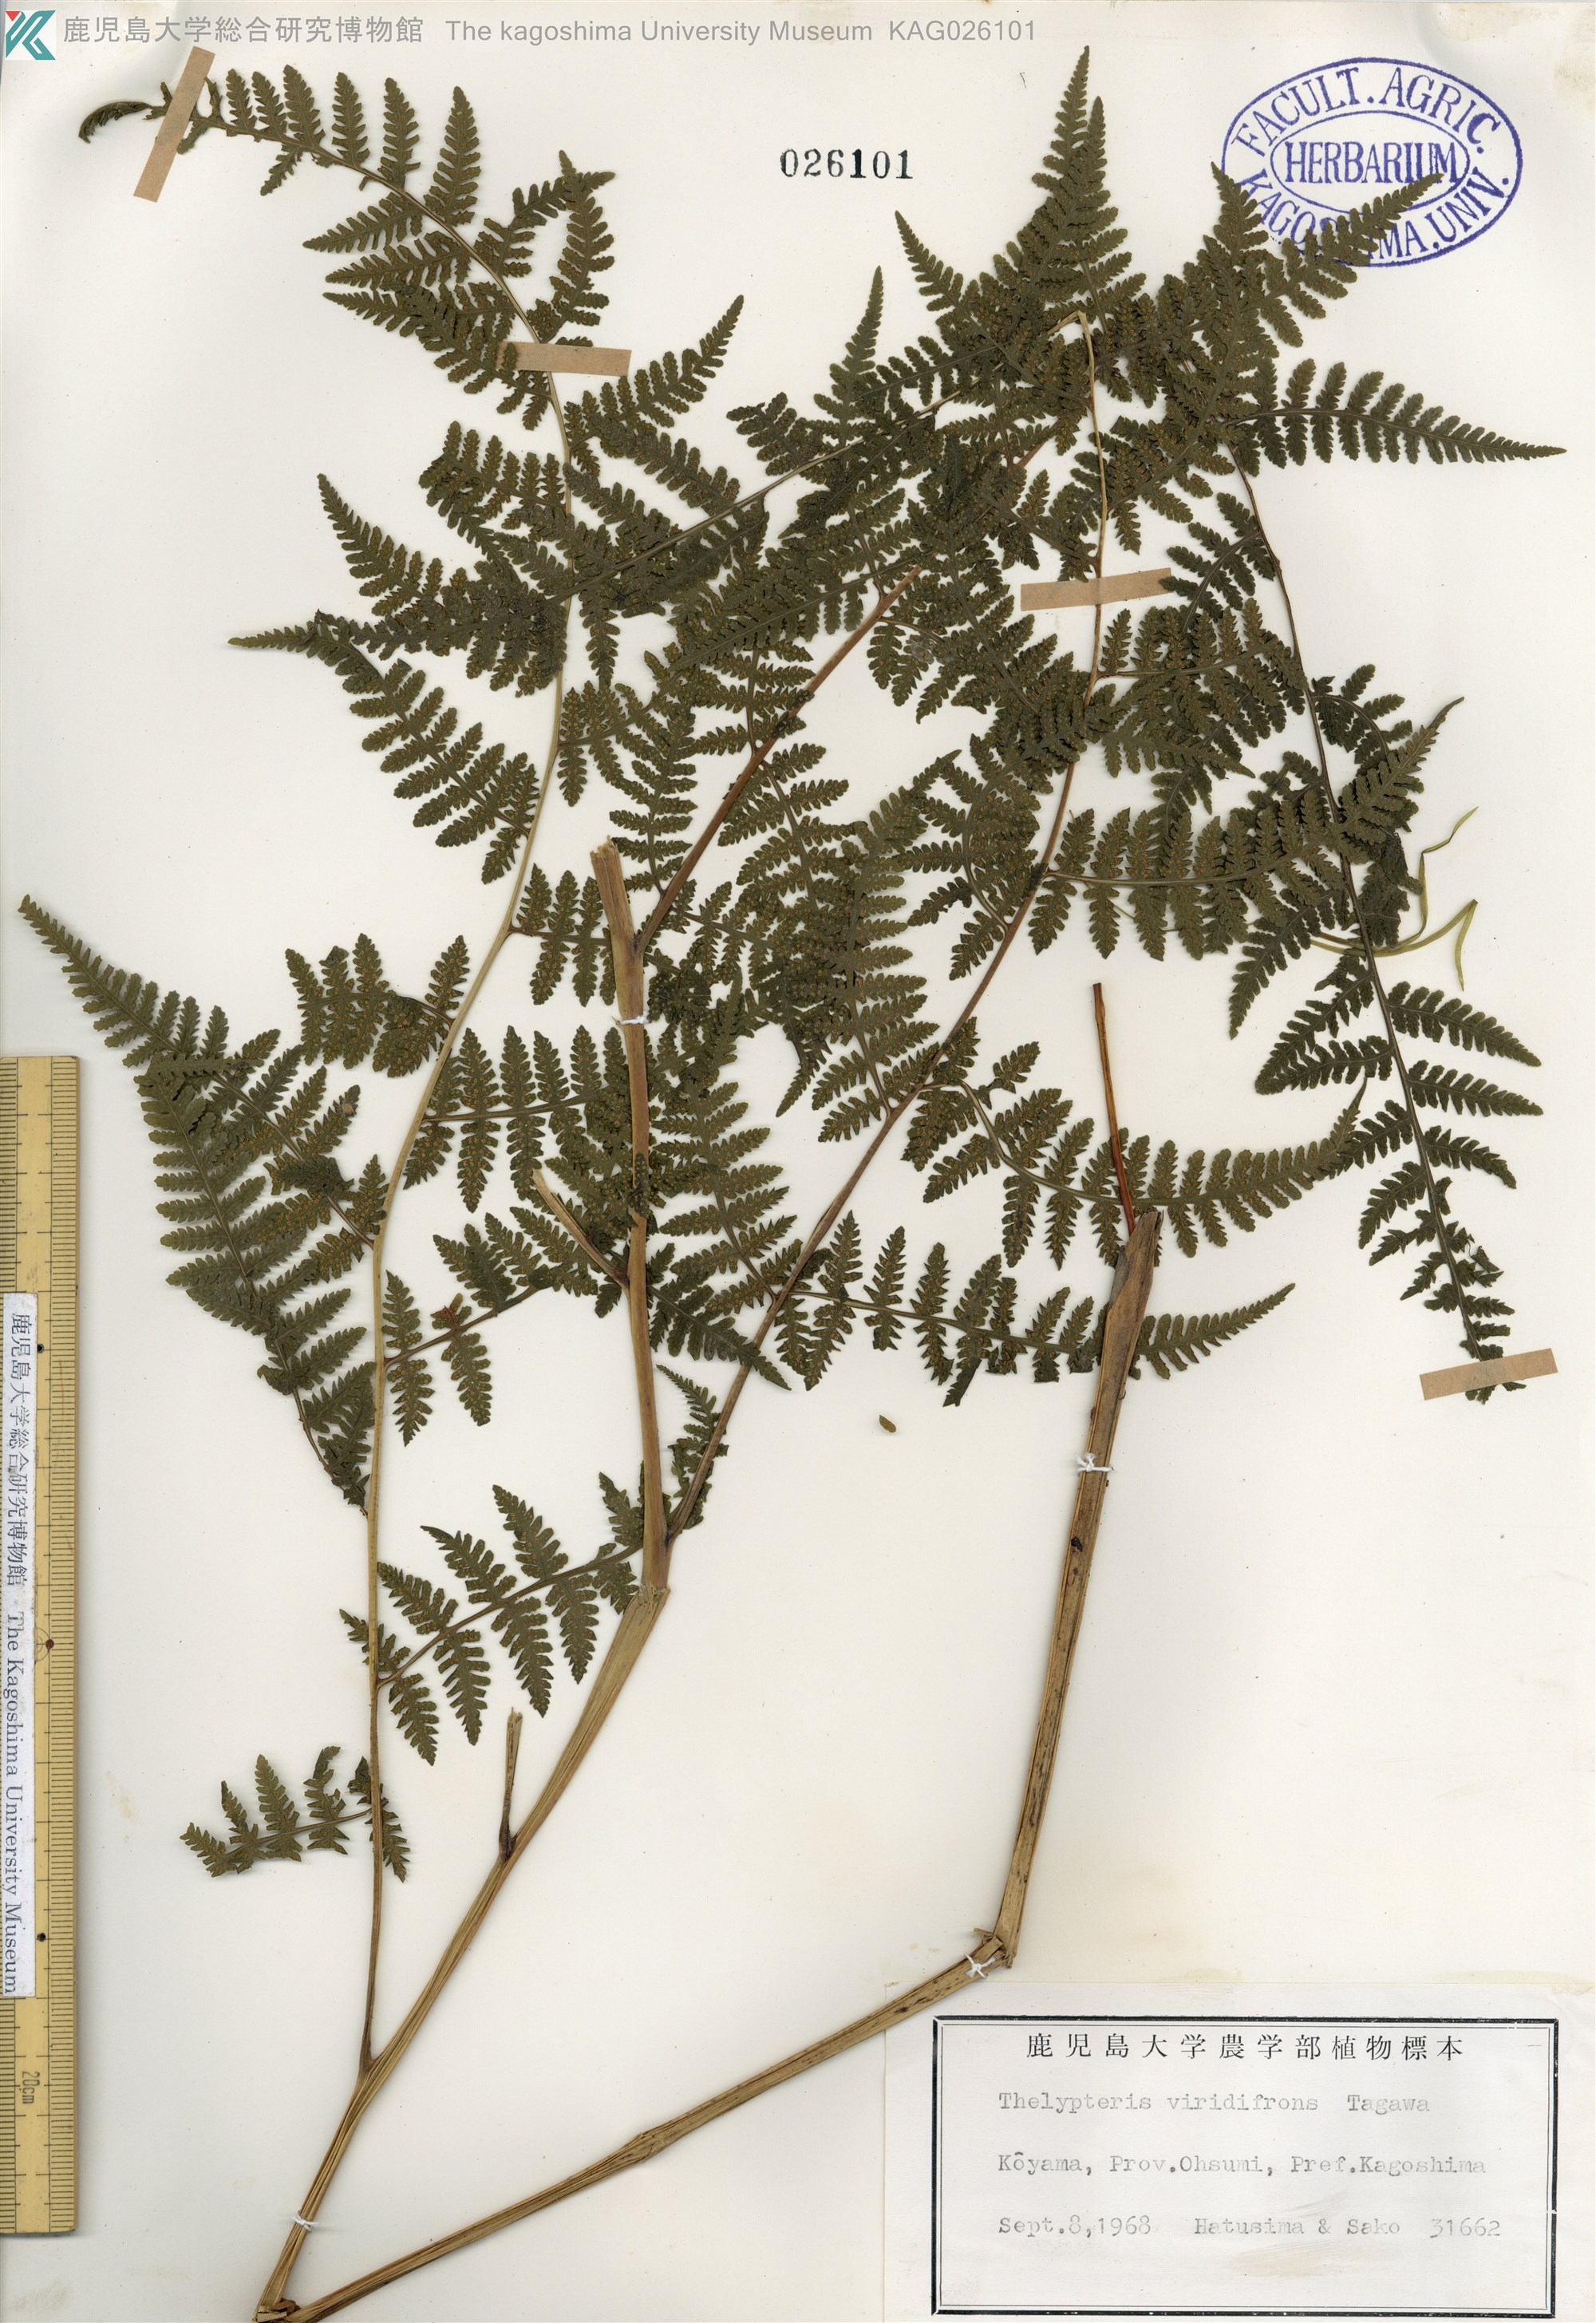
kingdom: Plantae
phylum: Tracheophyta
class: Polypodiopsida
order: Polypodiales
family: Thelypteridaceae
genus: Macrothelypteris
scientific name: Macrothelypteris viridifrons
